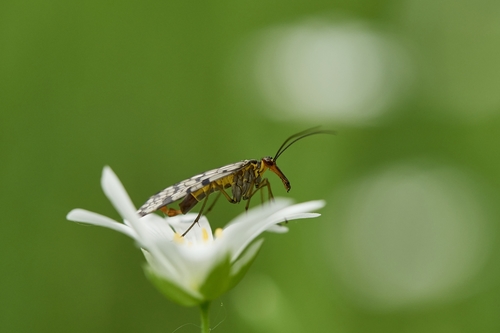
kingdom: Animalia
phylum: Arthropoda
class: Insecta
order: Mecoptera
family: Panorpidae
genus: Panorpa
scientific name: Panorpa communis
